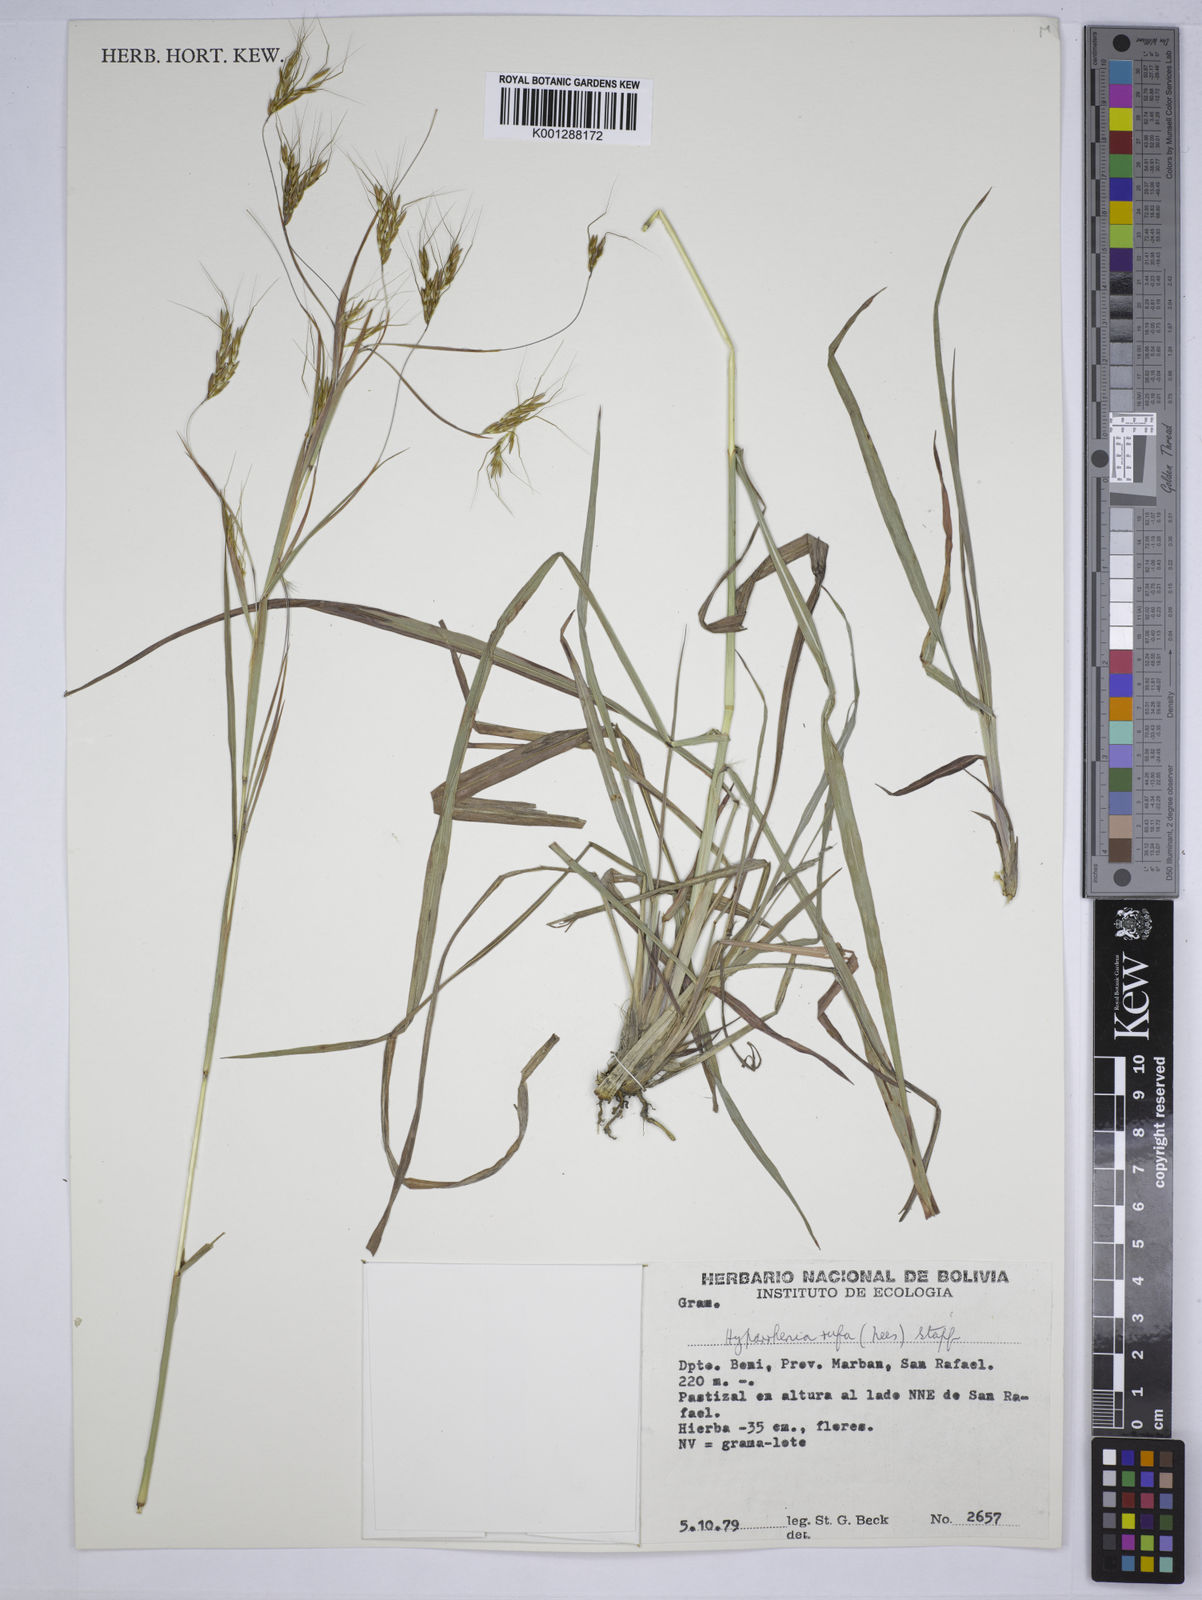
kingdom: Plantae
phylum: Tracheophyta
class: Liliopsida
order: Poales
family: Poaceae
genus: Hyparrhenia
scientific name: Hyparrhenia rufa
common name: Jaraguagrass
